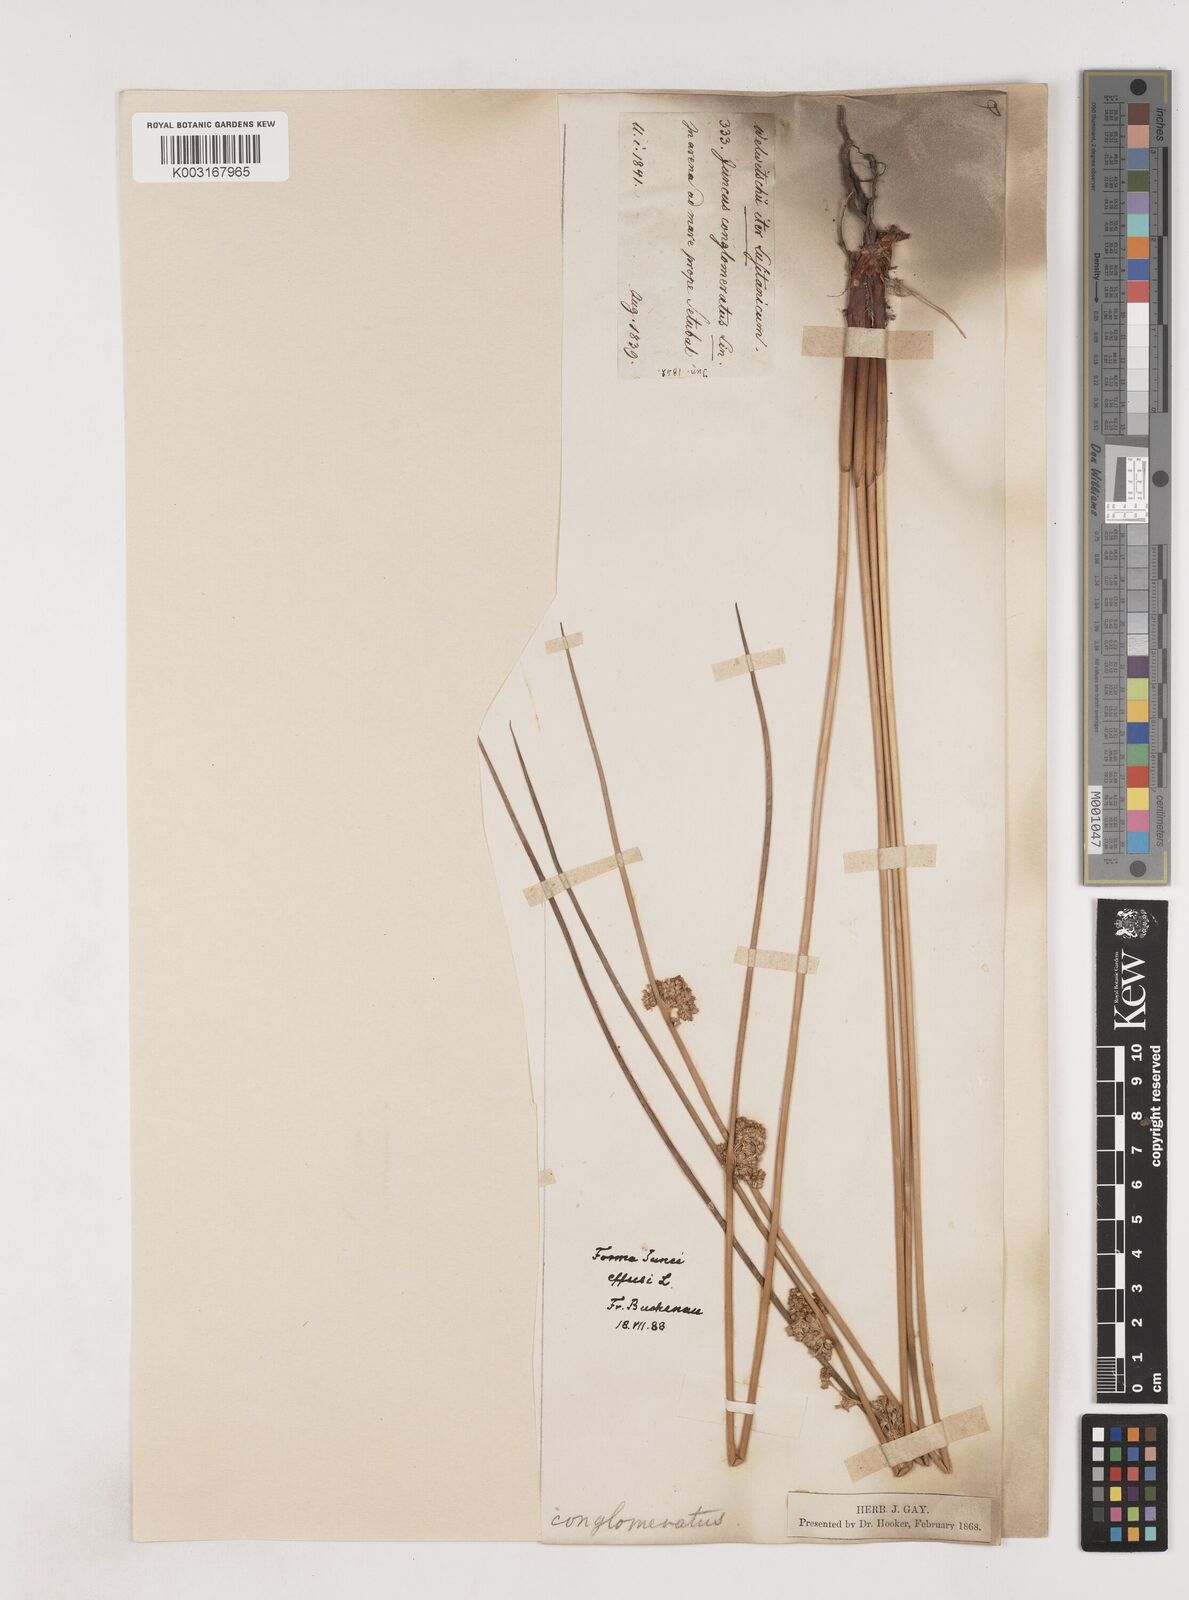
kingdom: Plantae
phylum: Tracheophyta
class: Liliopsida
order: Poales
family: Juncaceae
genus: Juncus
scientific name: Juncus effusus
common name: Soft rush
